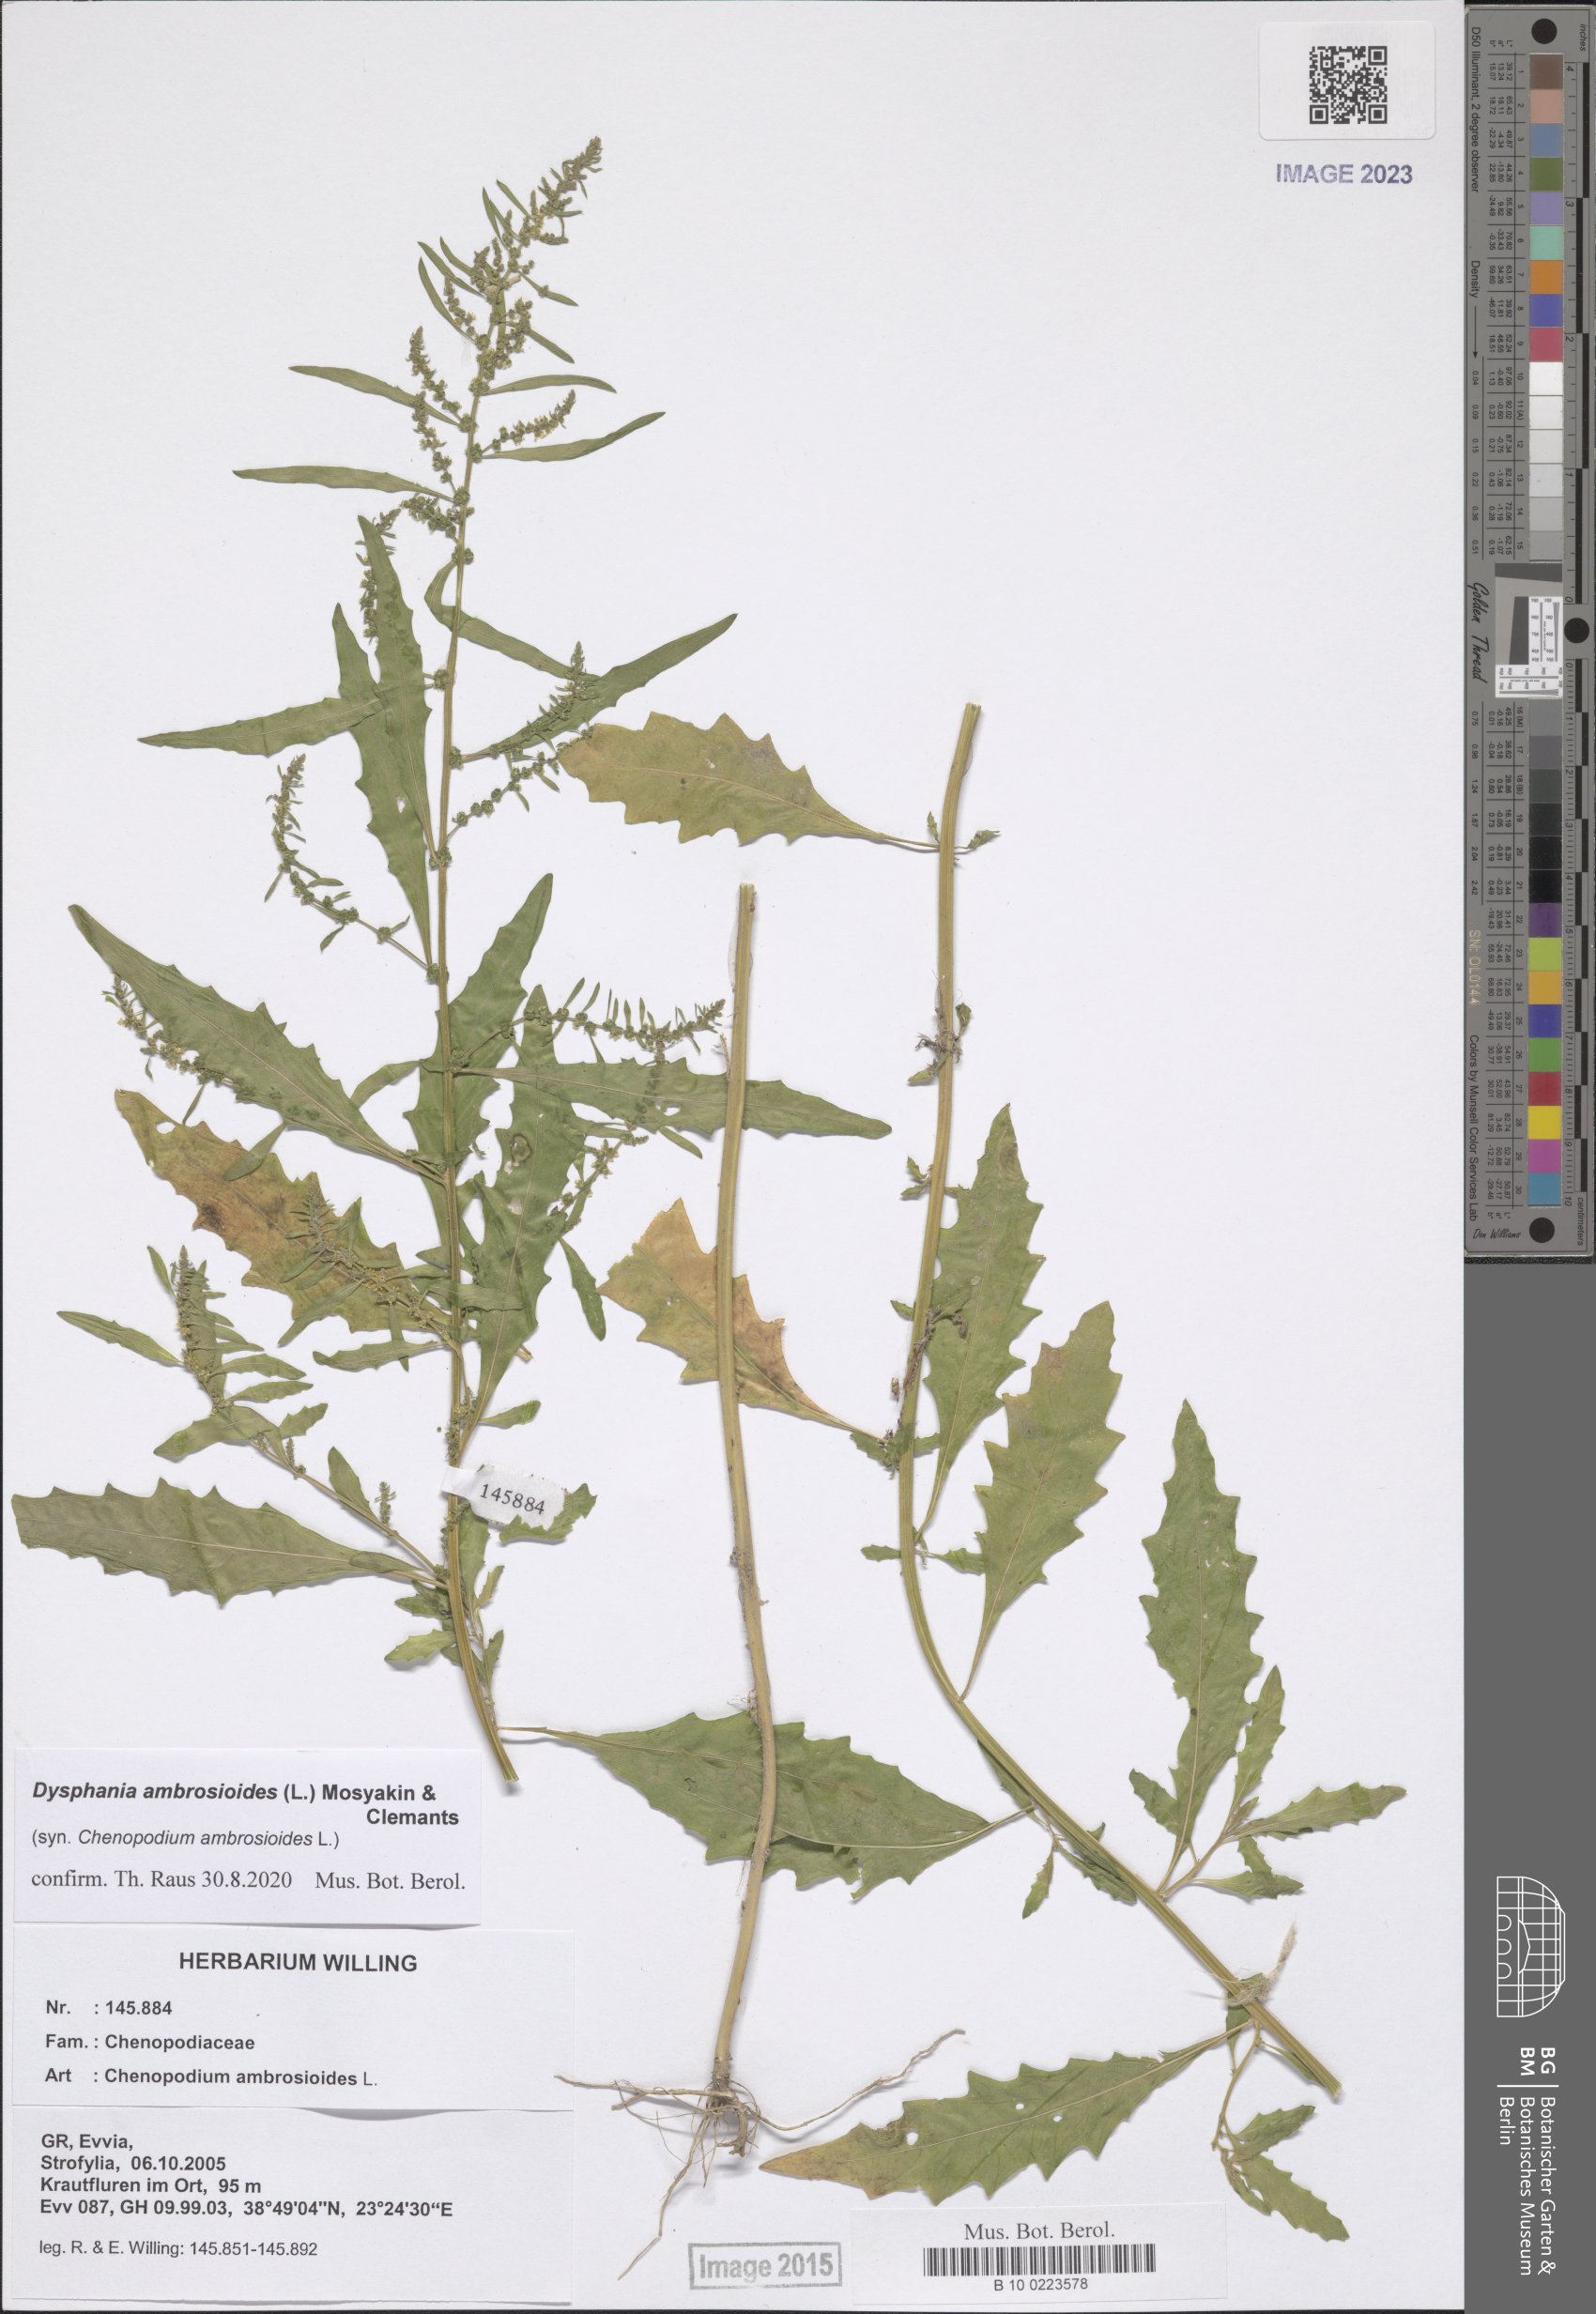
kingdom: Plantae
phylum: Tracheophyta
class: Magnoliopsida
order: Caryophyllales
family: Amaranthaceae
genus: Dysphania
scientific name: Dysphania ambrosioides
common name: Wormseed
